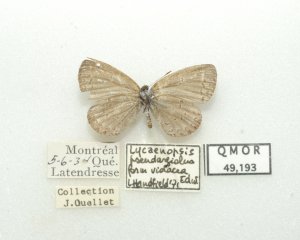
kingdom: Animalia
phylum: Arthropoda
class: Insecta
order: Lepidoptera
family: Lycaenidae
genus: Celastrina
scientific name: Celastrina lucia
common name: Northern Spring Azure
